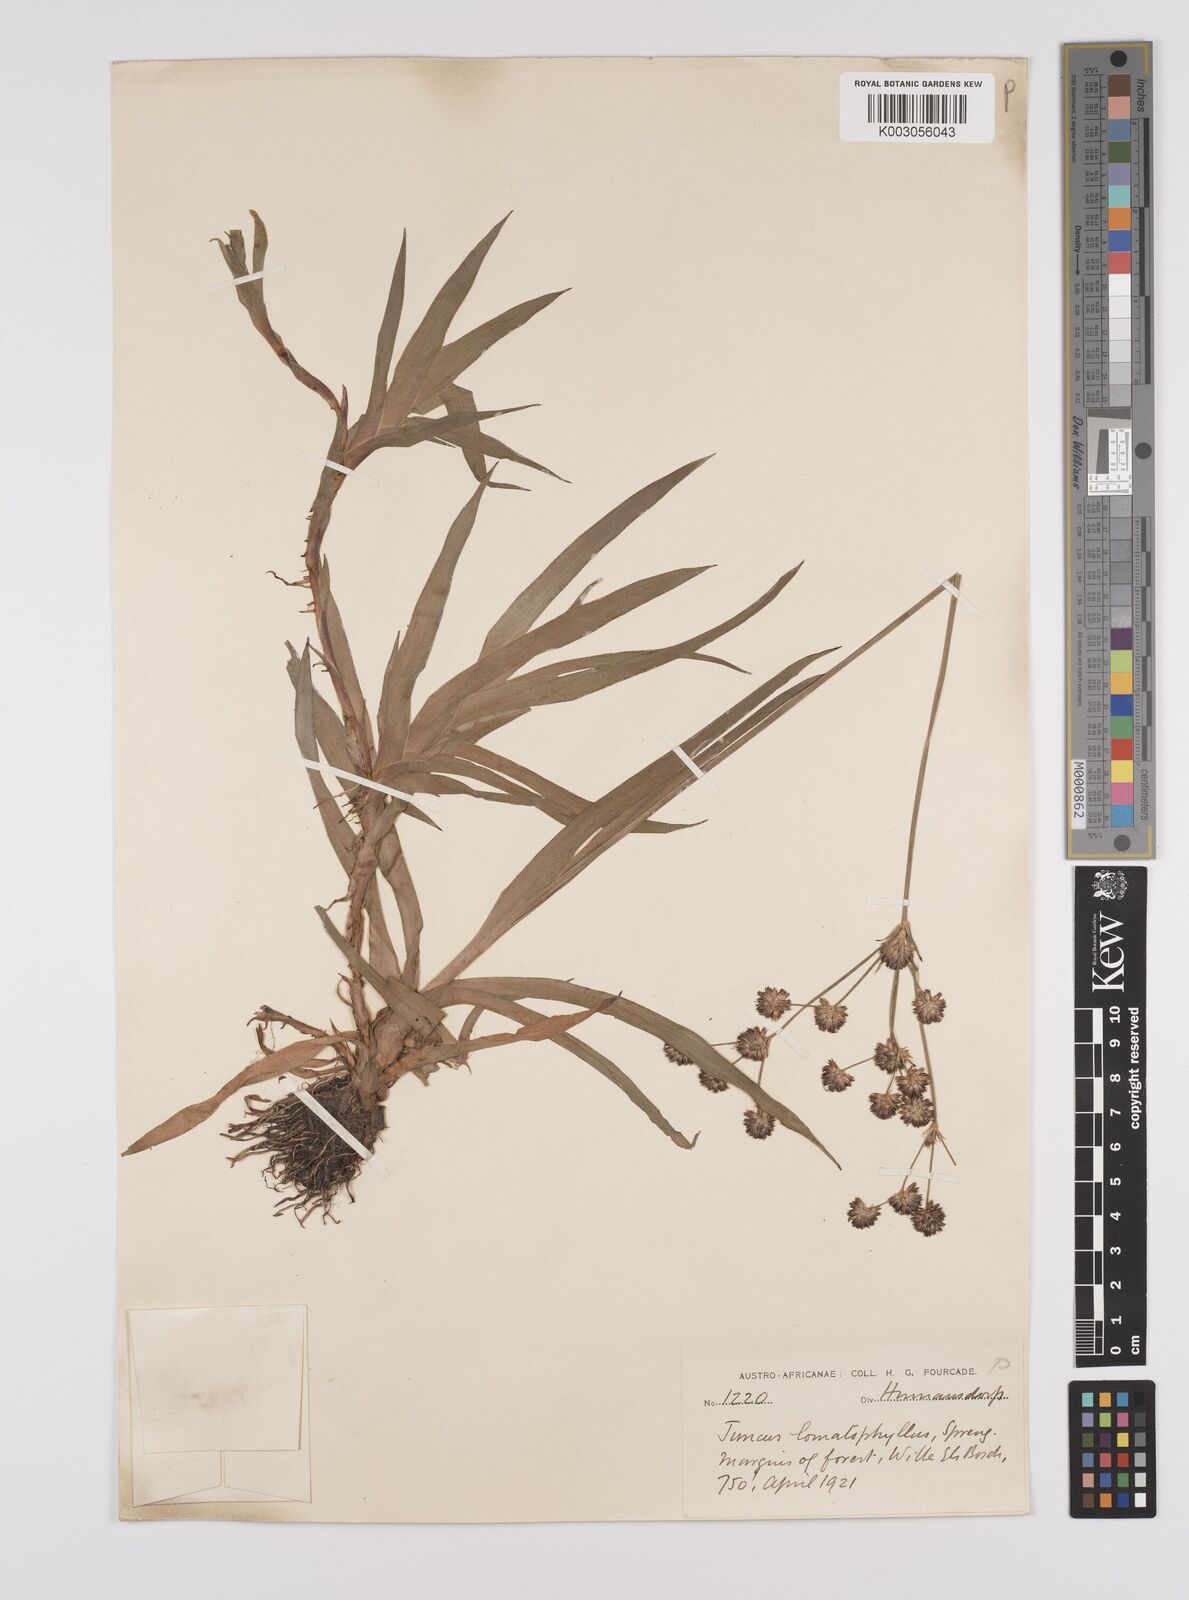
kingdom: Plantae
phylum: Tracheophyta
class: Liliopsida
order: Poales
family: Juncaceae
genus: Juncus
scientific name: Juncus lomatophyllus
